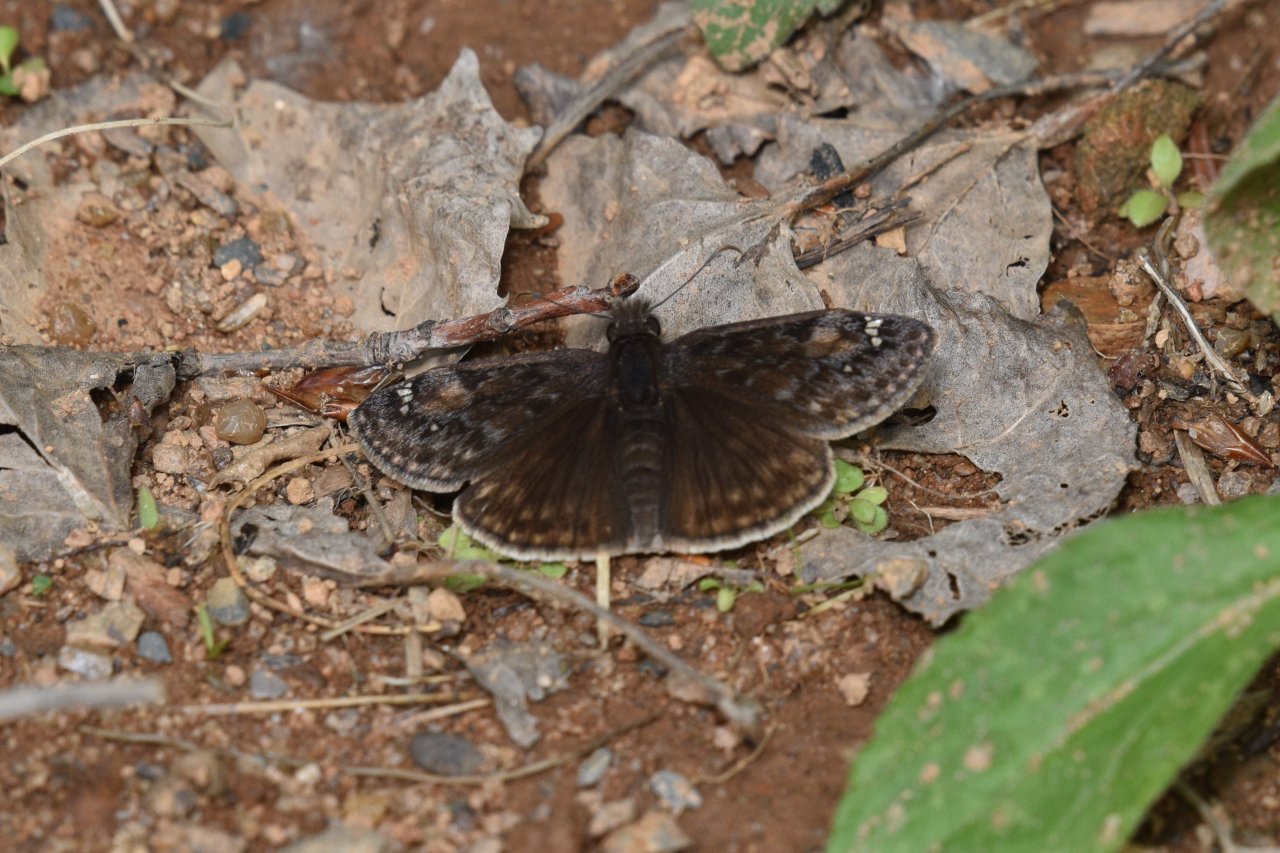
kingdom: Animalia
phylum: Arthropoda
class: Insecta
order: Lepidoptera
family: Hesperiidae
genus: Gesta
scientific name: Gesta
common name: Juvenal's Duskywing
